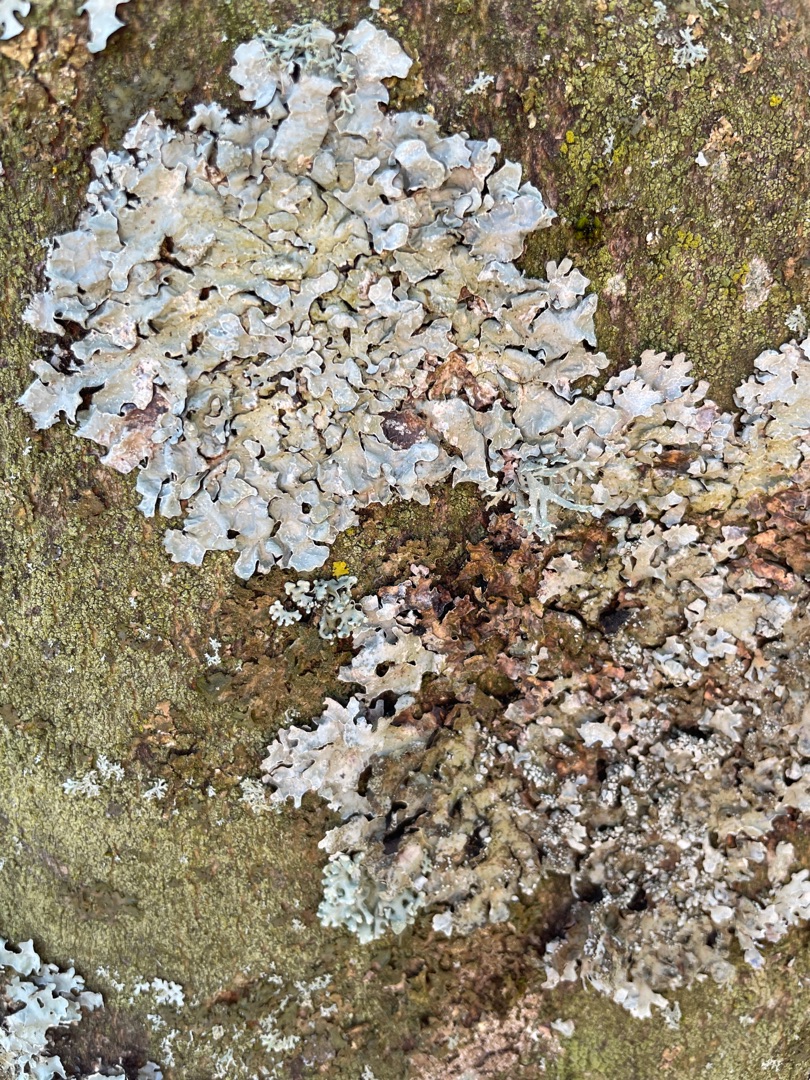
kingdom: Fungi
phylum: Ascomycota
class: Lecanoromycetes
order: Lecanorales
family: Parmeliaceae
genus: Parmelia
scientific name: Parmelia sulcata
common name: Rynket skållav
